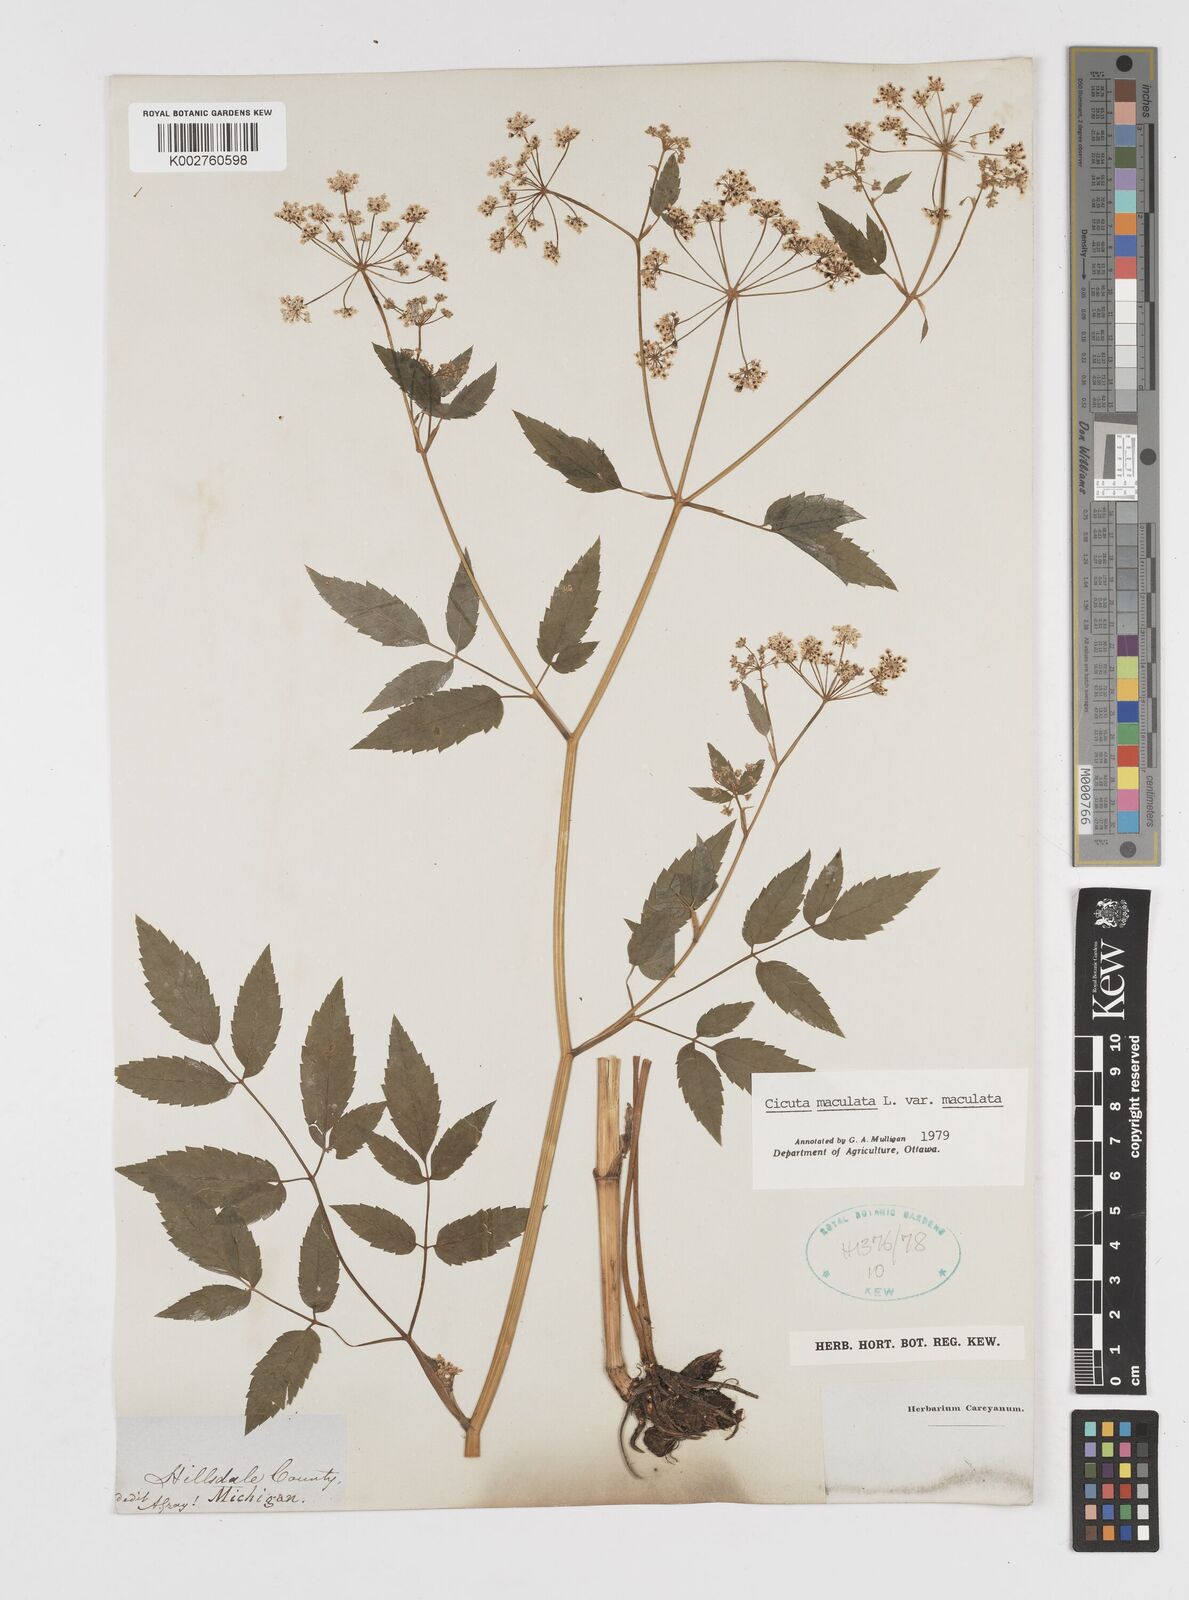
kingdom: Plantae
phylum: Tracheophyta
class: Magnoliopsida
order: Apiales
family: Apiaceae
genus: Cicuta
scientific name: Cicuta maculata
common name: Spotted cowbane
